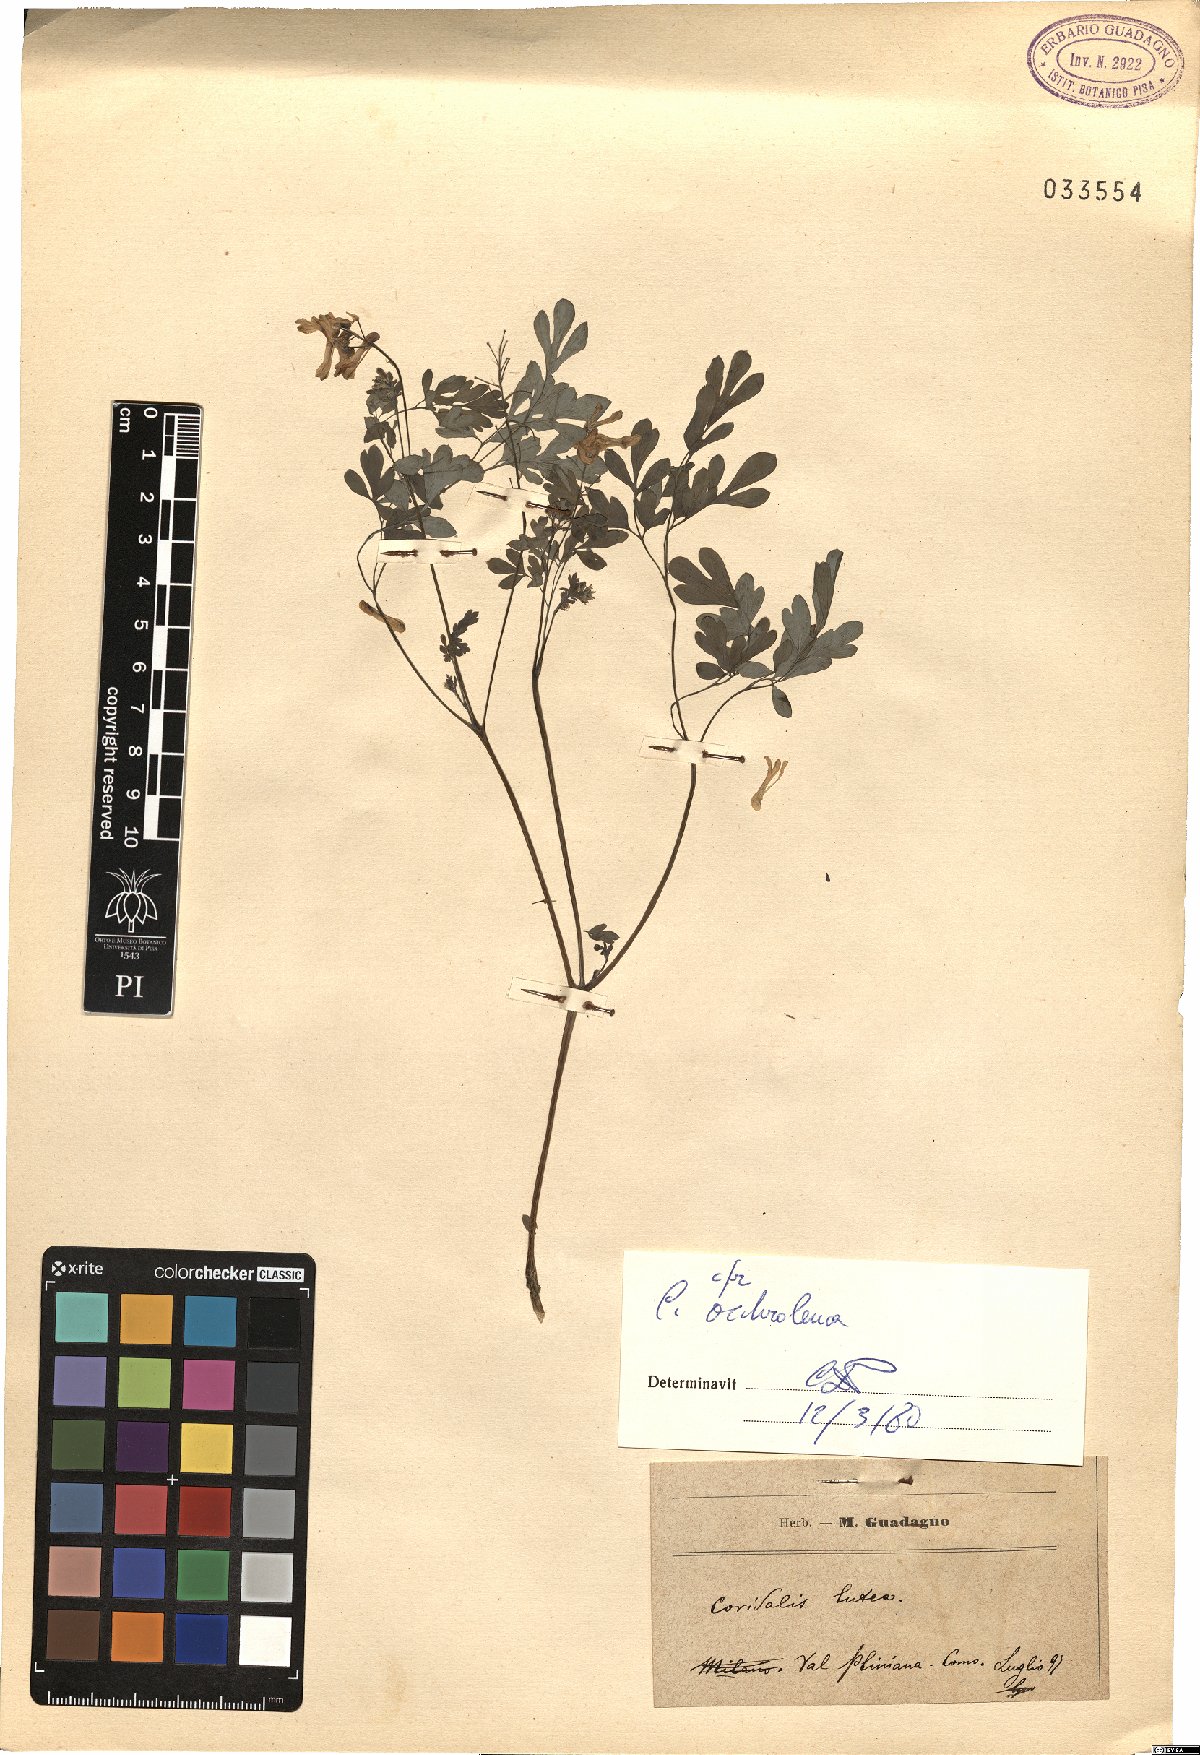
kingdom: Plantae
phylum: Tracheophyta
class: Magnoliopsida
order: Ranunculales
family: Papaveraceae
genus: Pseudofumaria
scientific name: Pseudofumaria alba
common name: Pale corydalis
